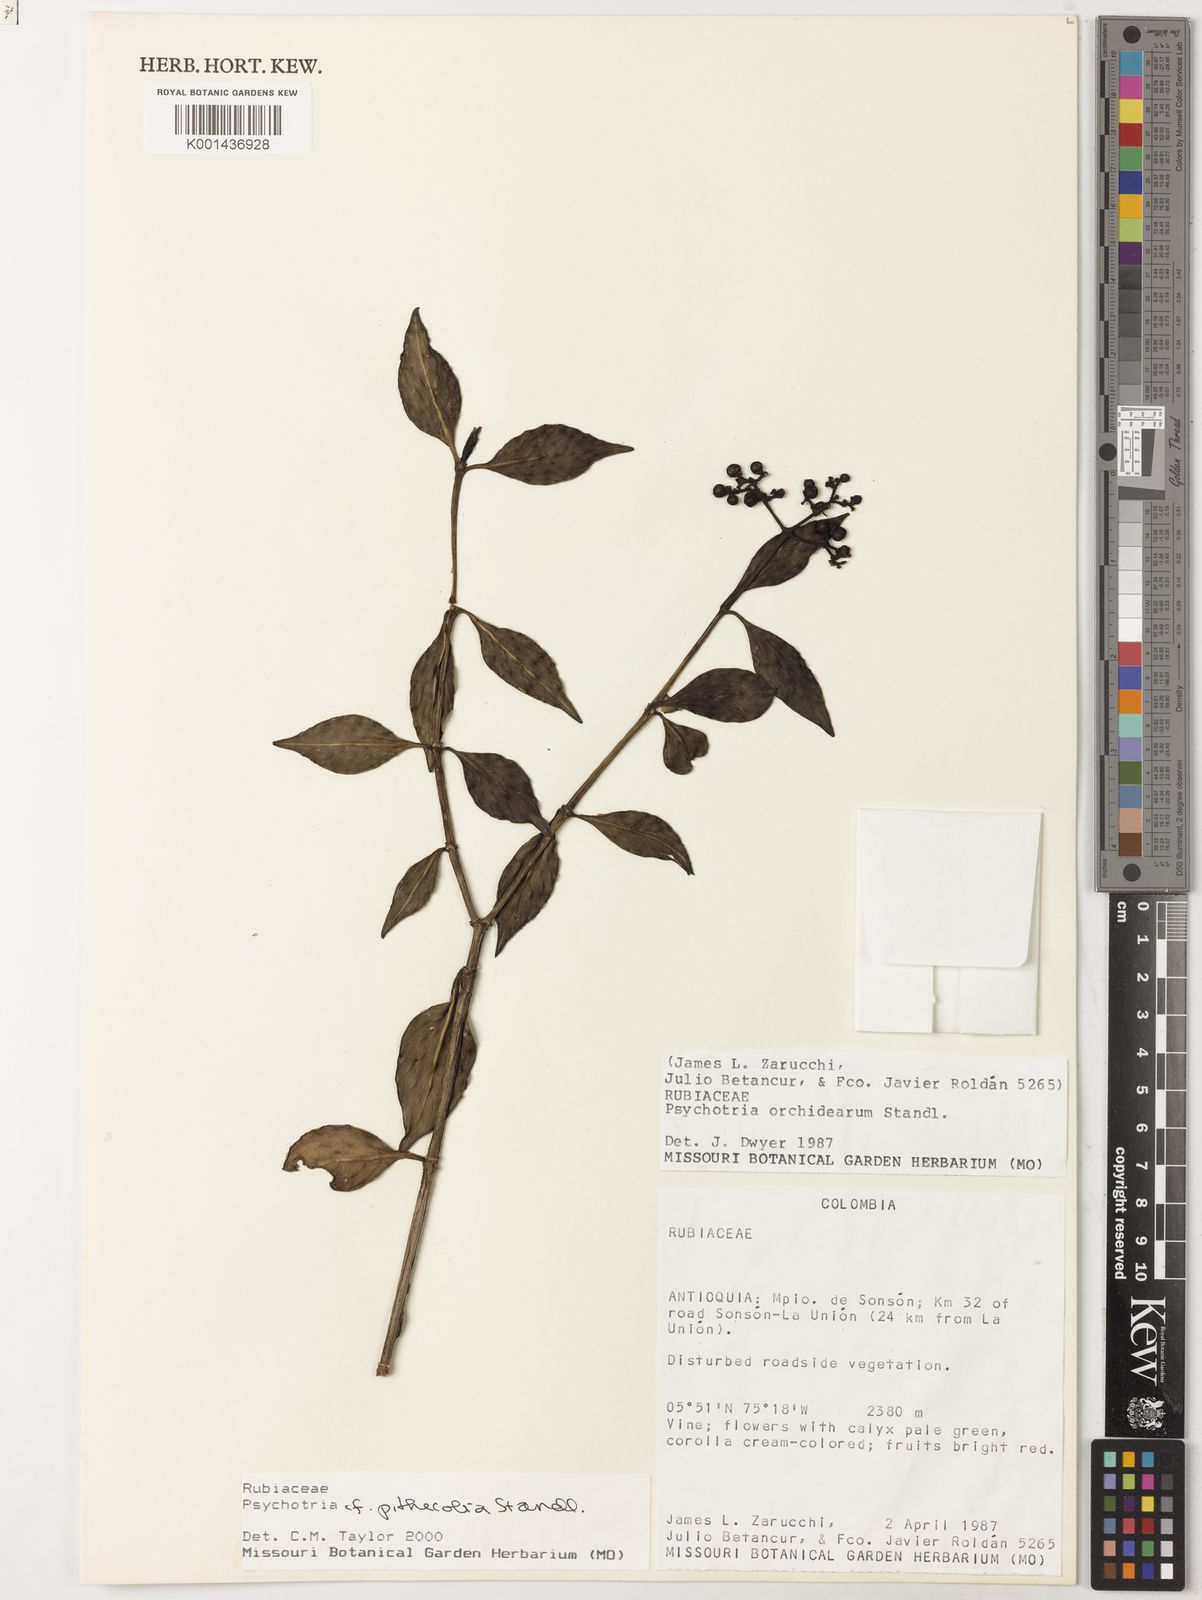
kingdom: Plantae
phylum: Tracheophyta
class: Magnoliopsida
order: Gentianales
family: Rubiaceae
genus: Notopleura
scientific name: Notopleura pithecobia
